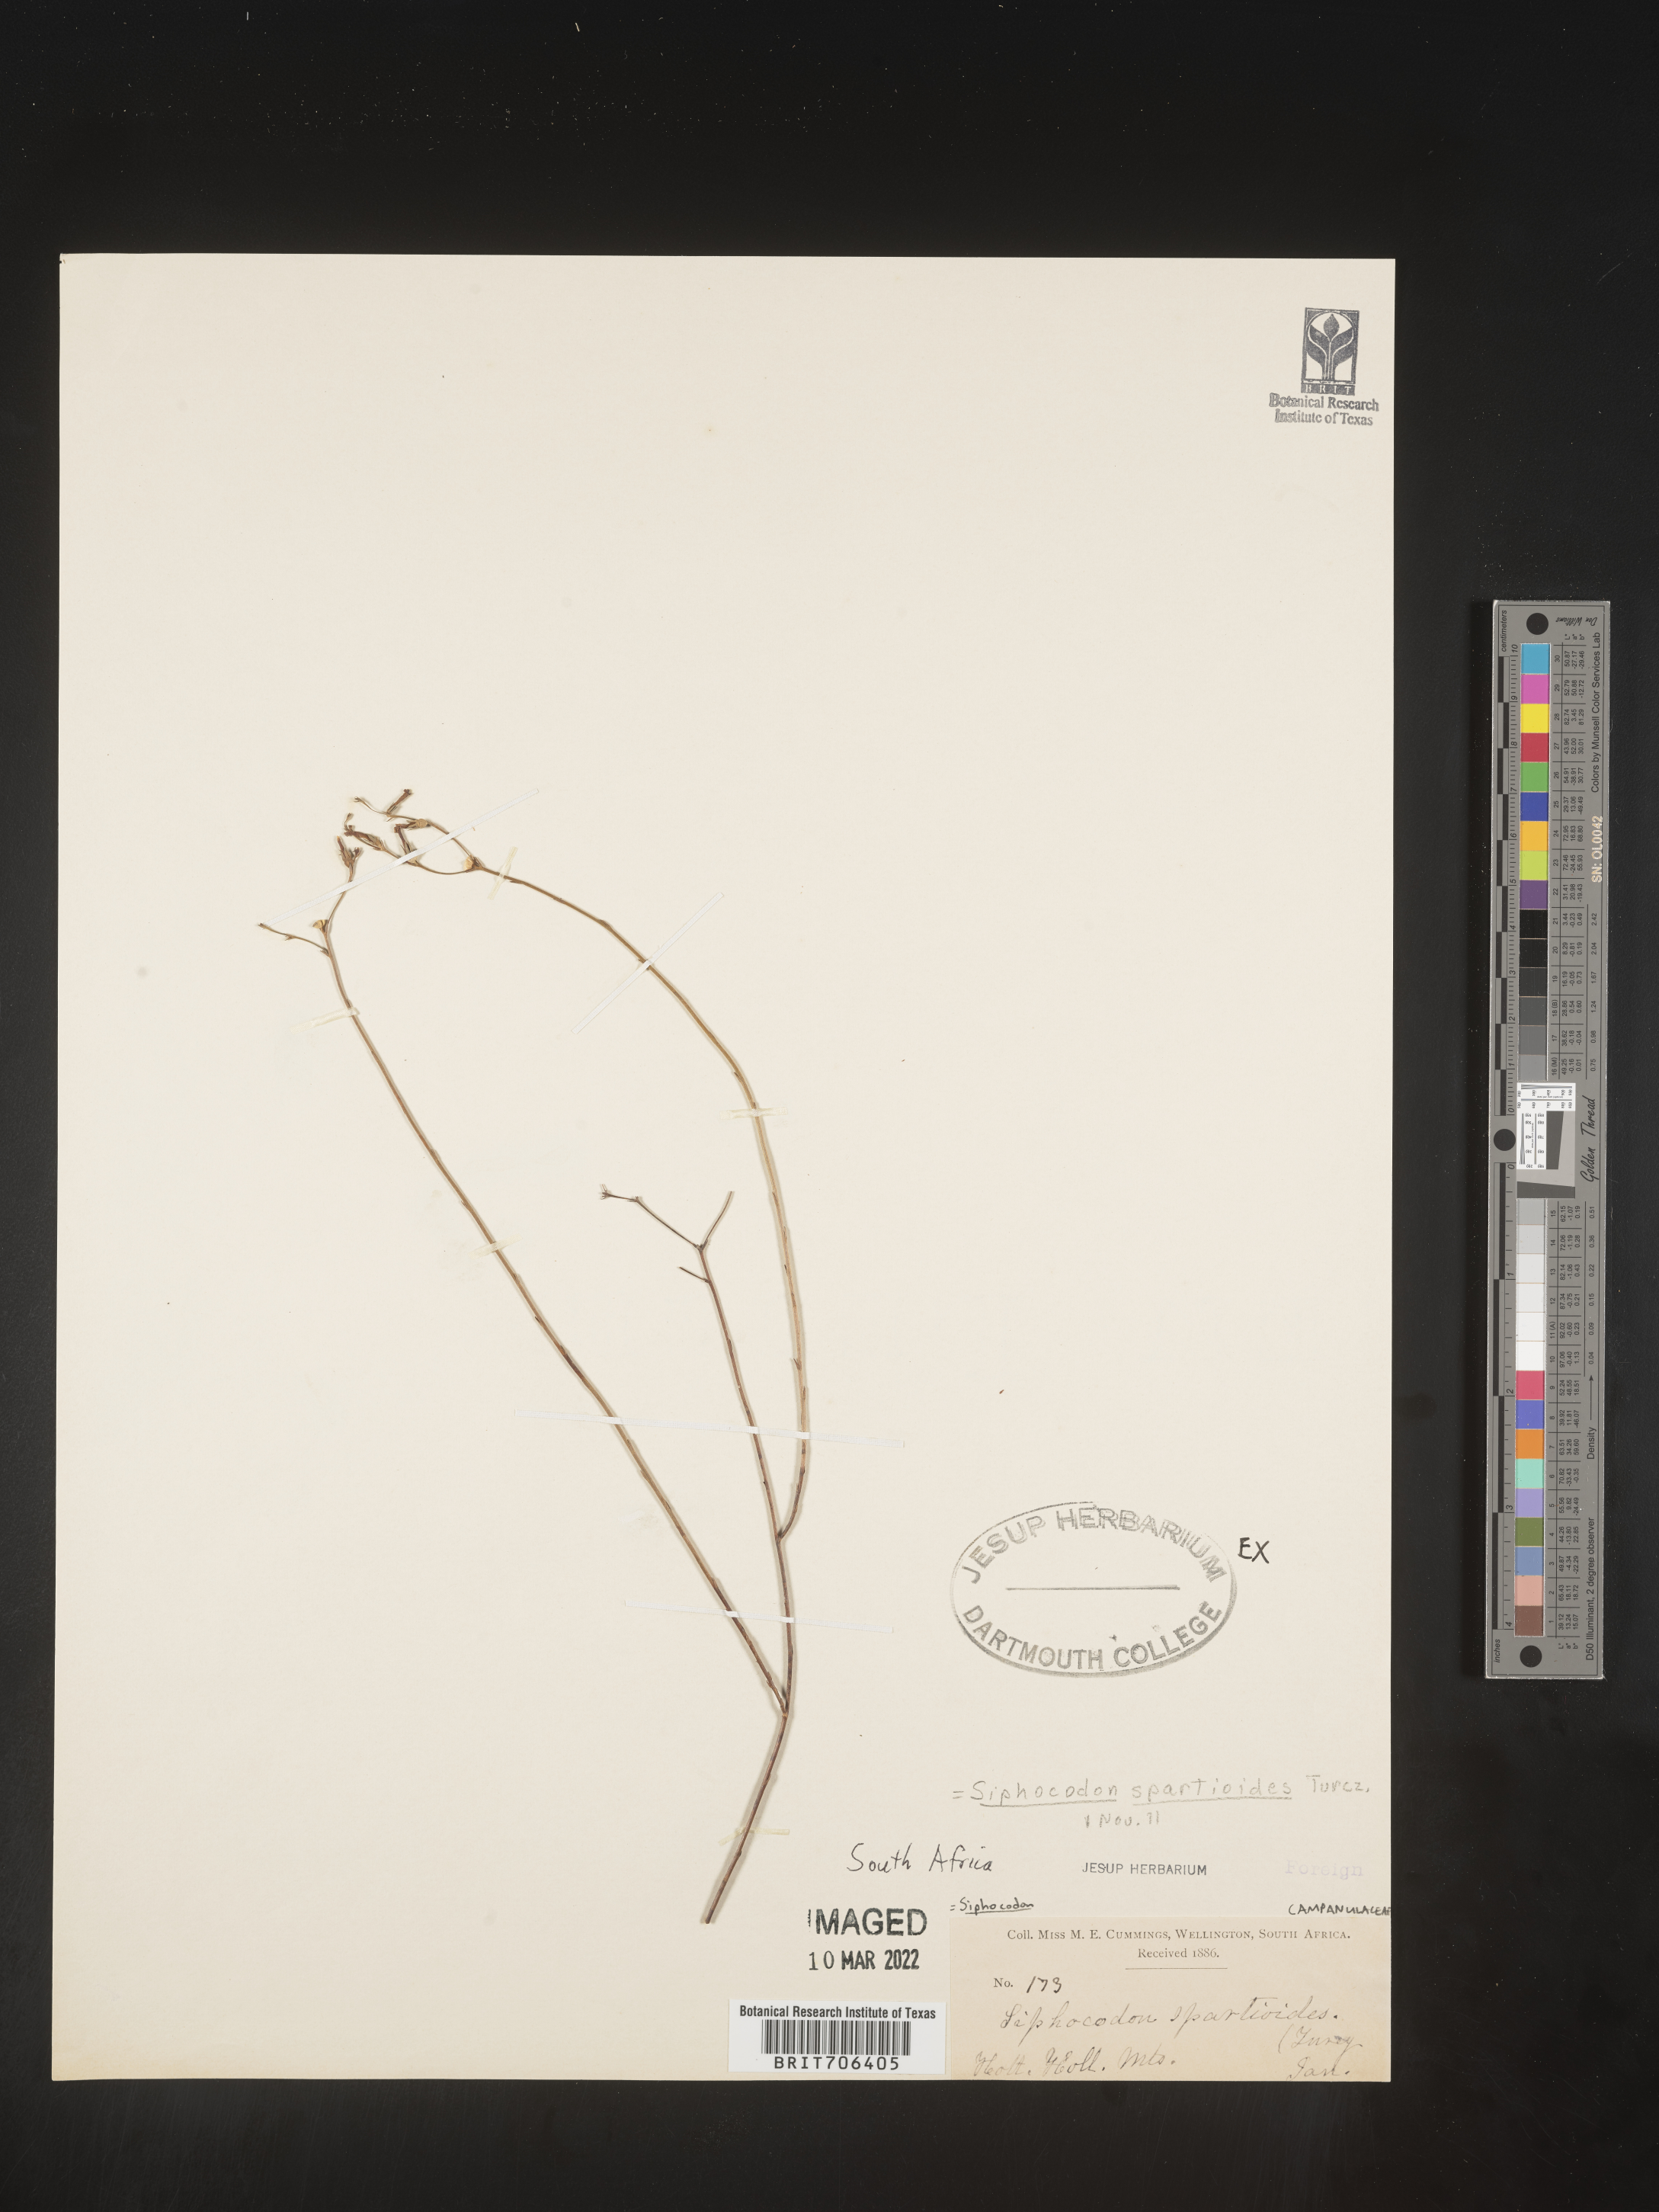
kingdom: Plantae
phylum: Tracheophyta
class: Magnoliopsida
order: Asterales
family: Campanulaceae
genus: Siphocodon
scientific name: Siphocodon
